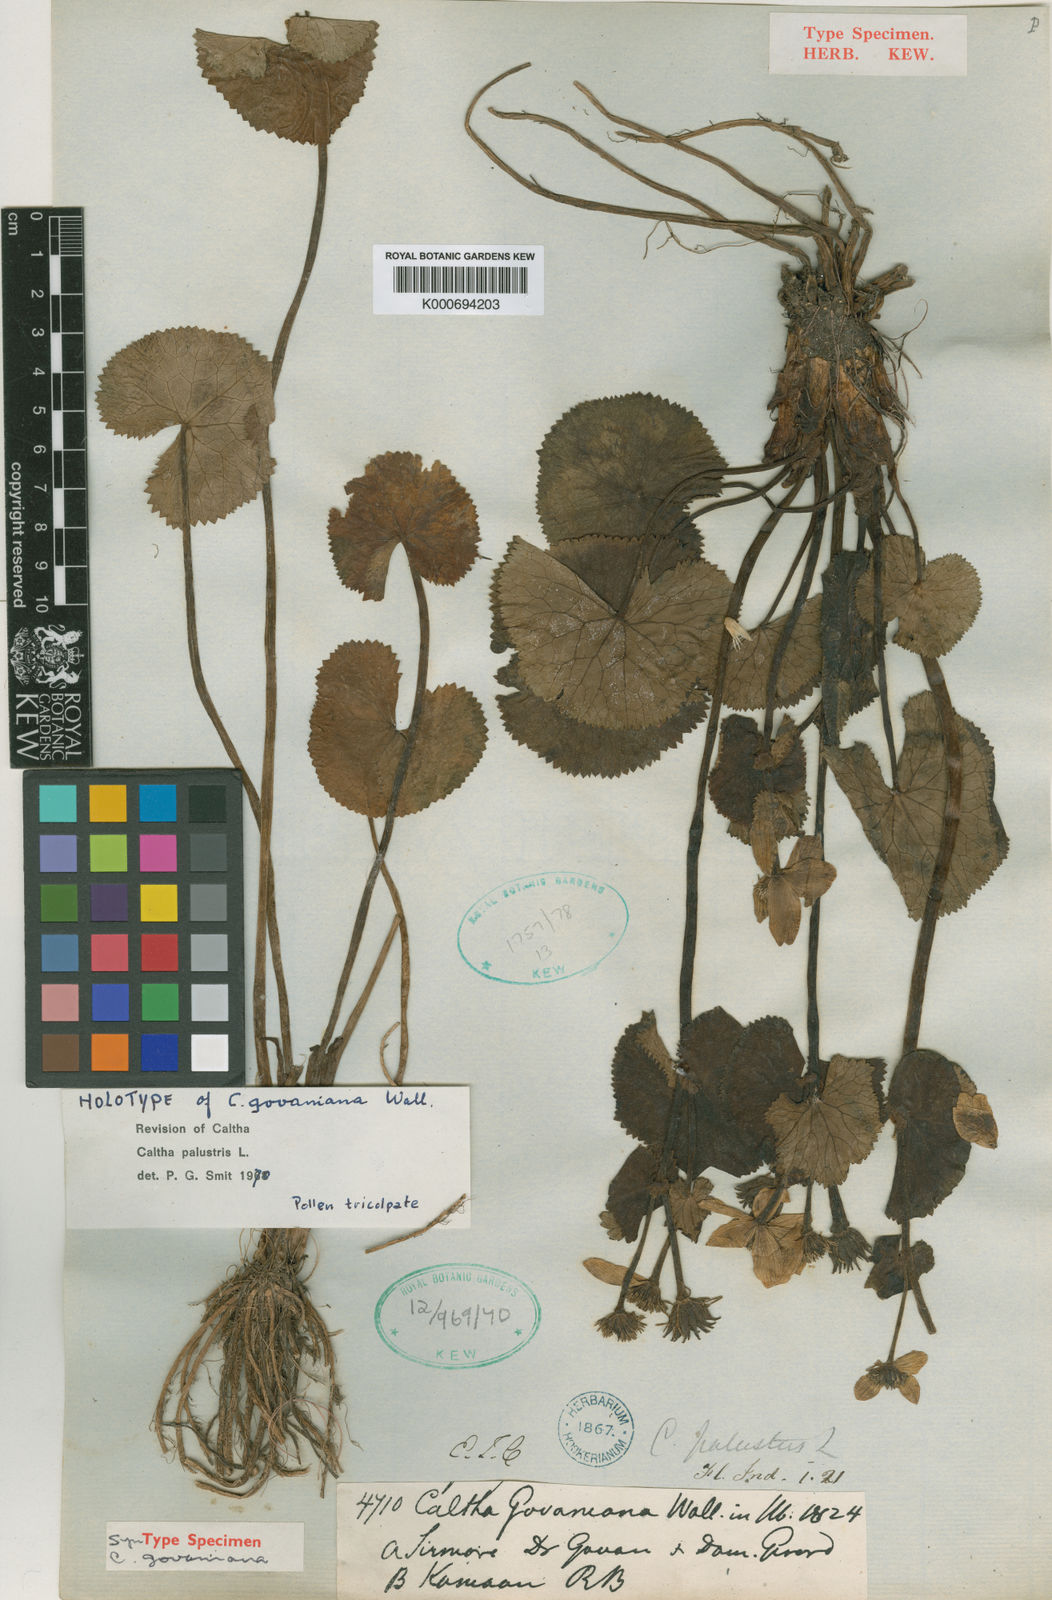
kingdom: Plantae
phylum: Tracheophyta
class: Magnoliopsida
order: Ranunculales
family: Ranunculaceae
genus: Caltha
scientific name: Caltha palustris
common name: Marsh marigold
